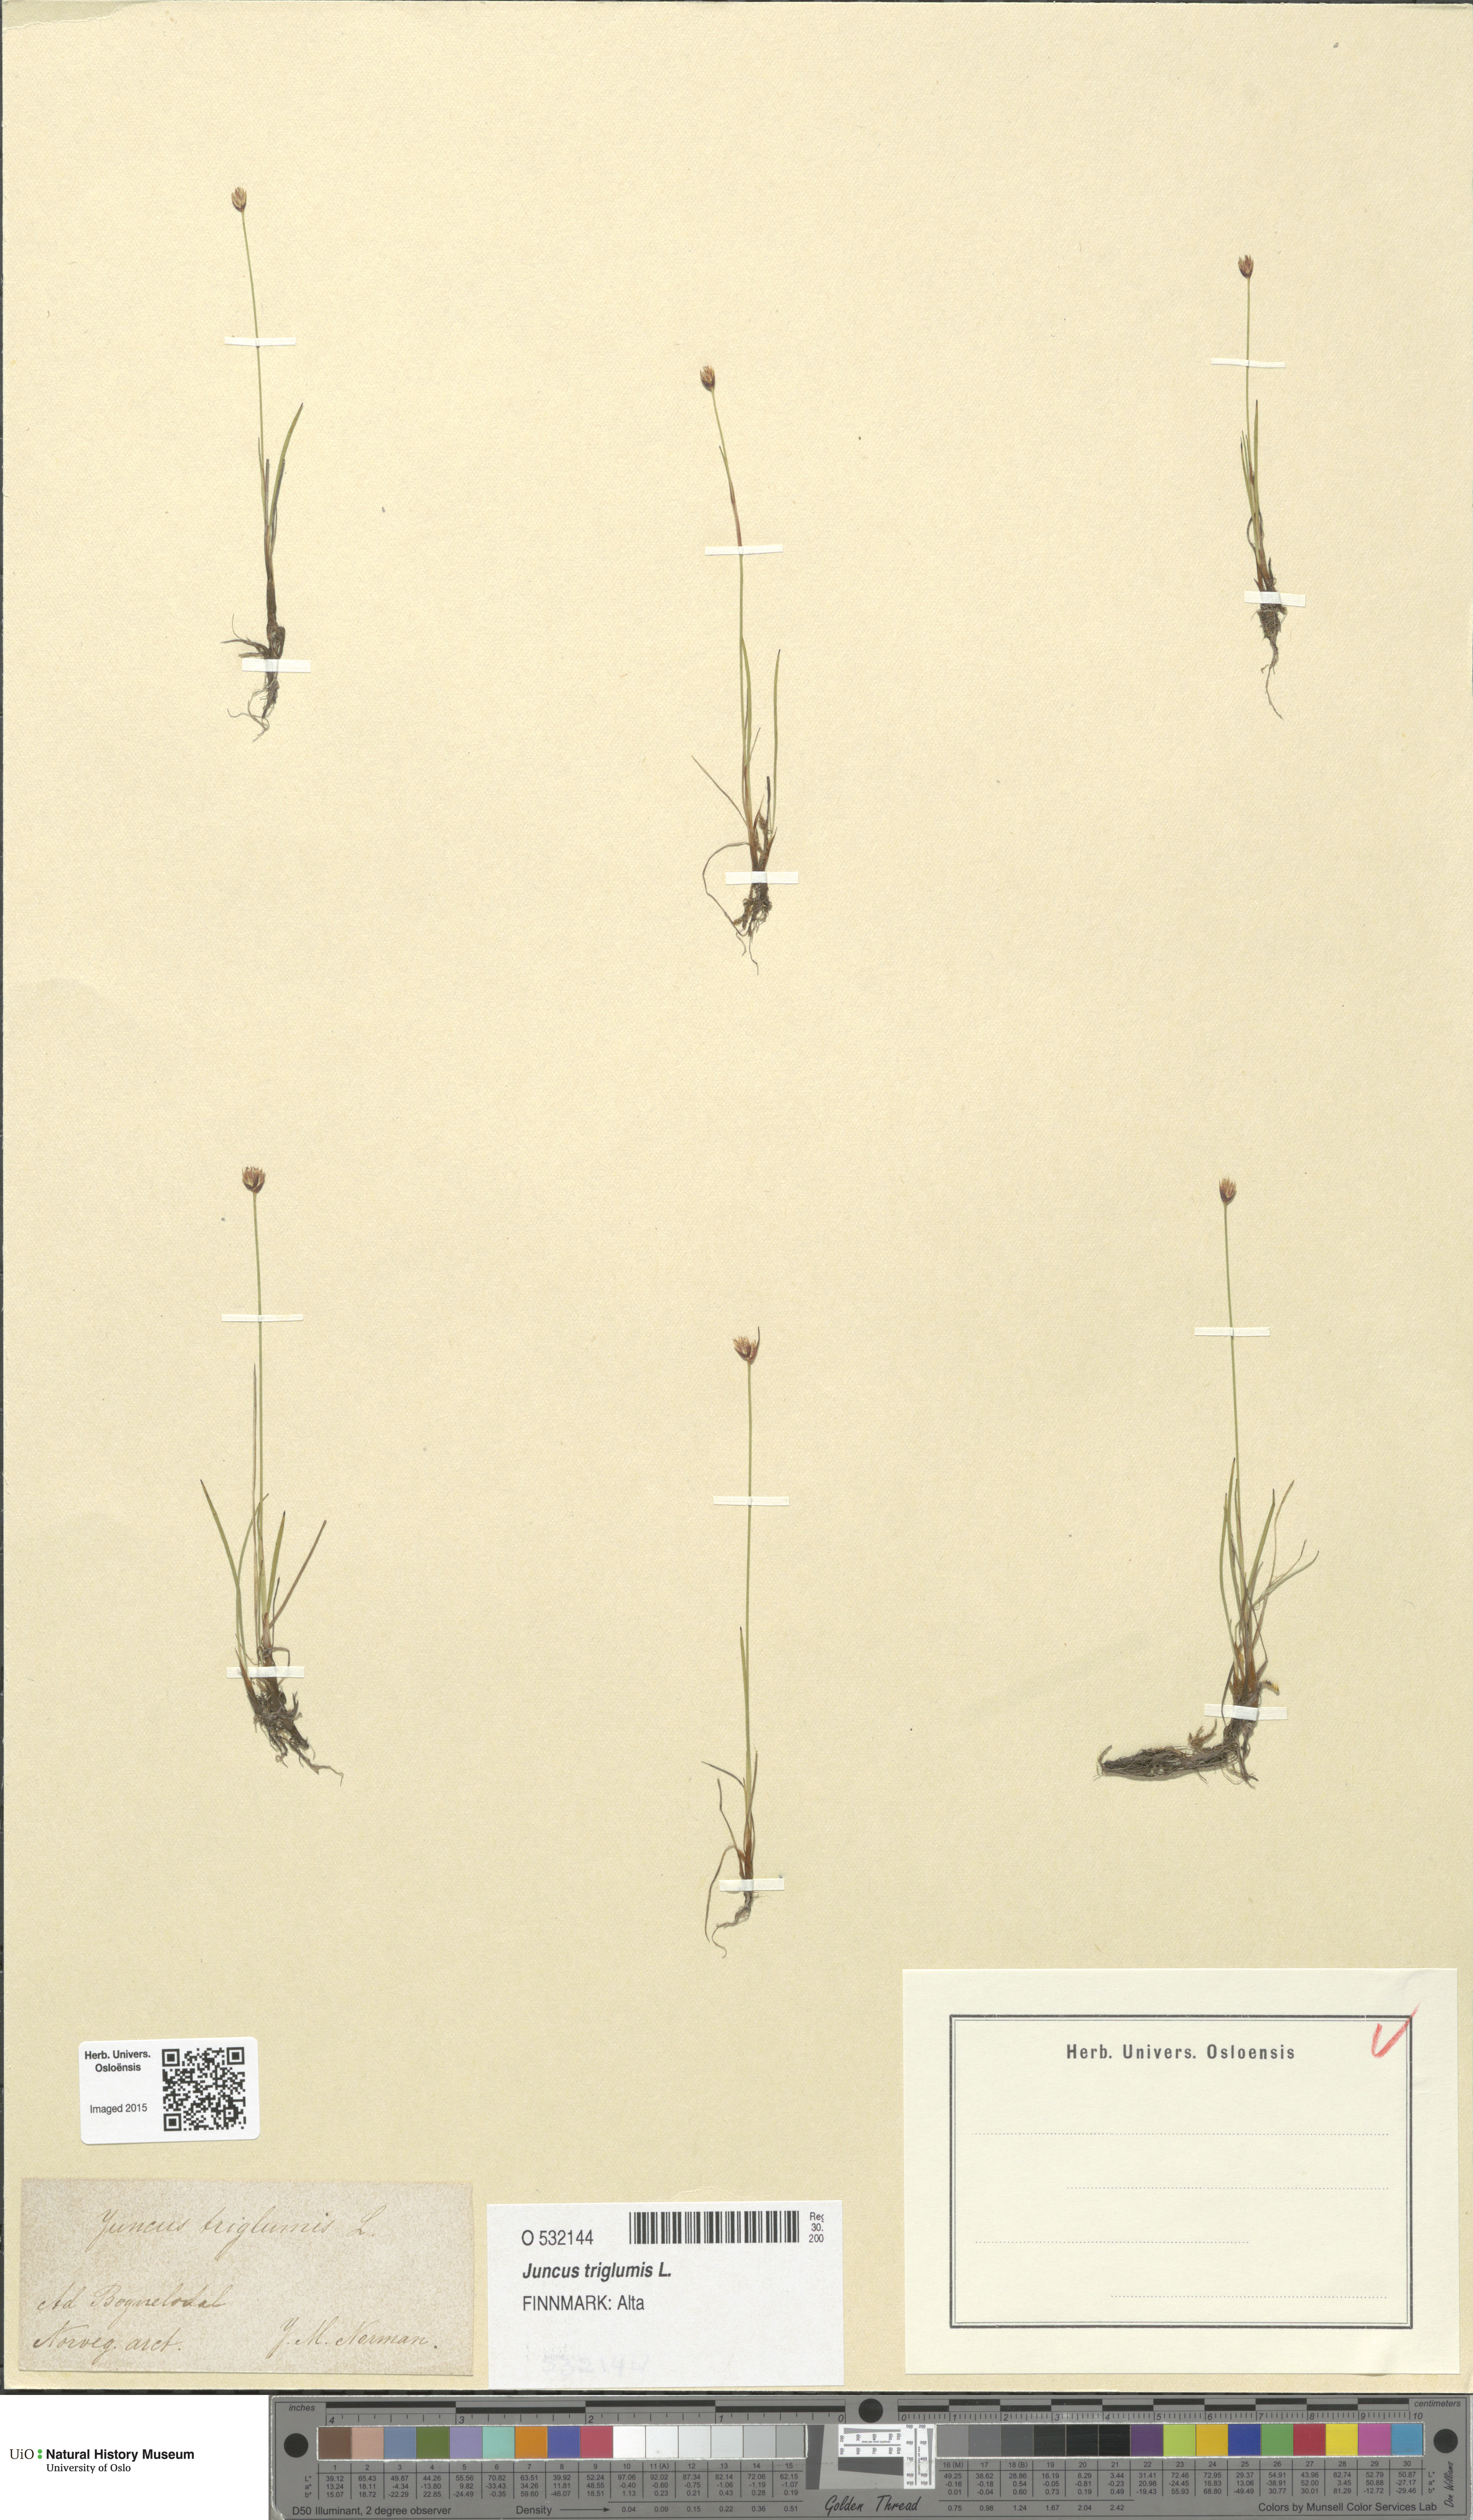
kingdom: Plantae
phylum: Tracheophyta
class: Liliopsida
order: Poales
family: Juncaceae
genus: Juncus
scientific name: Juncus triglumis
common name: Three-flowered rush
